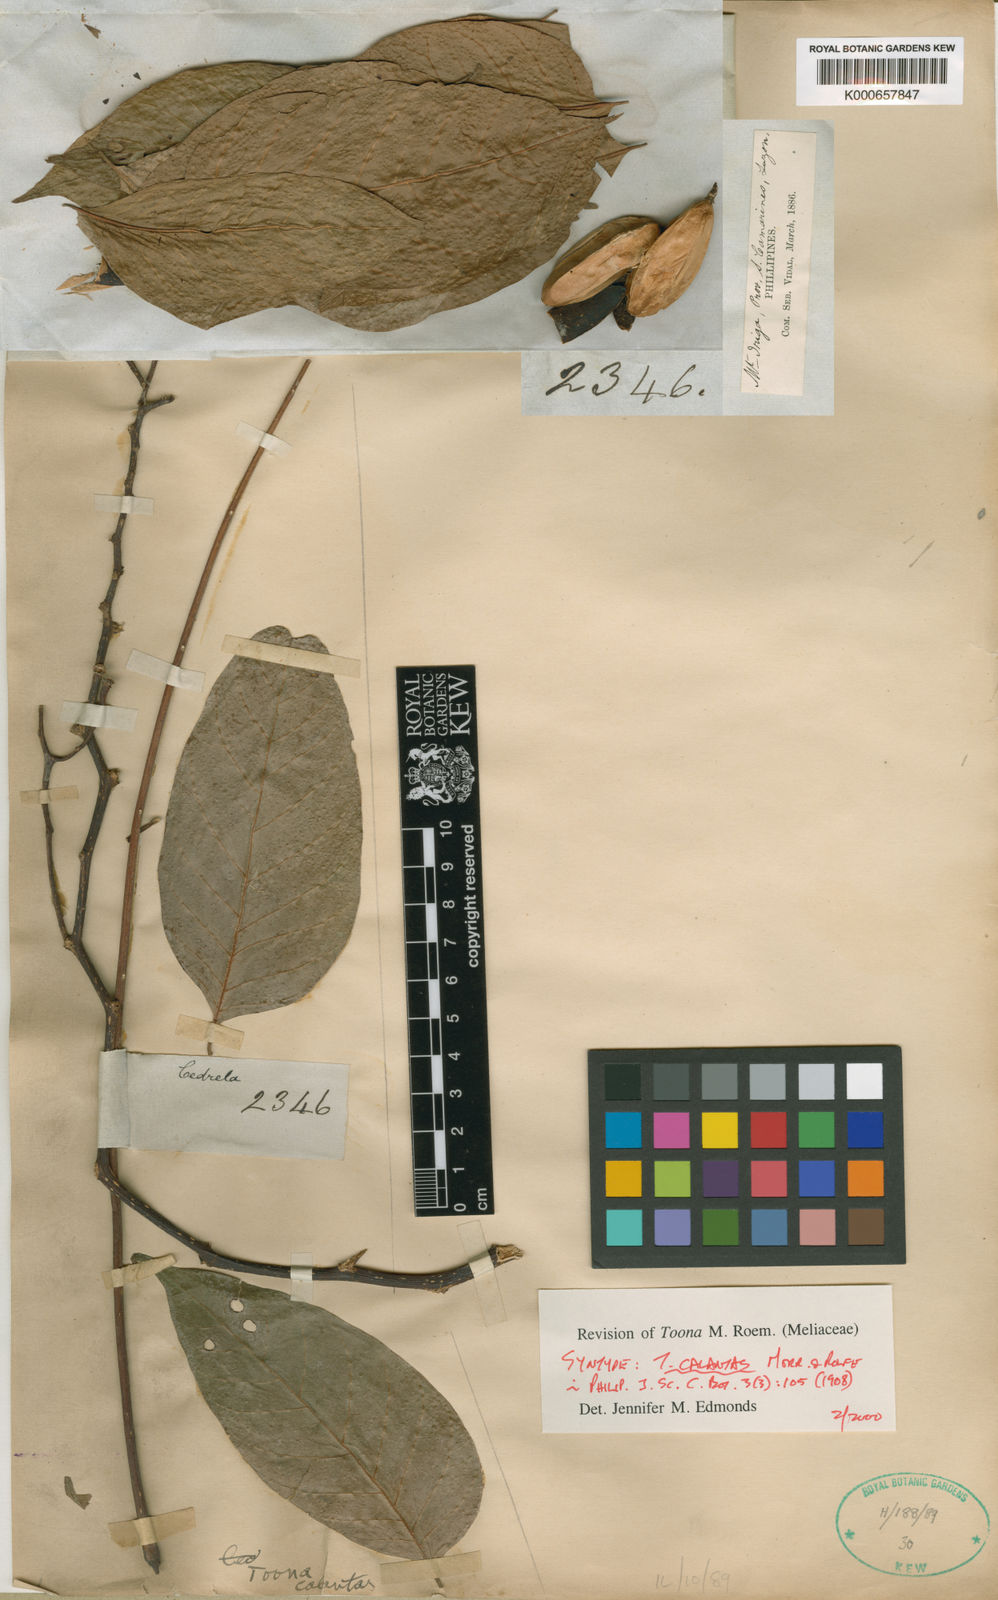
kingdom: Plantae
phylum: Tracheophyta
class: Magnoliopsida
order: Sapindales
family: Meliaceae
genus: Toona
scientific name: Toona calantas
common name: Philippine cedar
